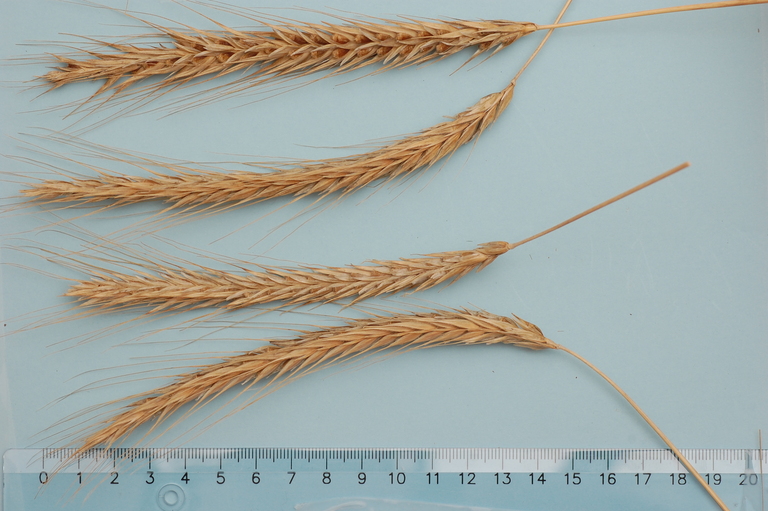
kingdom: Plantae
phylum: Tracheophyta
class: Liliopsida
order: Poales
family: Poaceae
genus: Secale
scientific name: Secale cereale
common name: Rye
